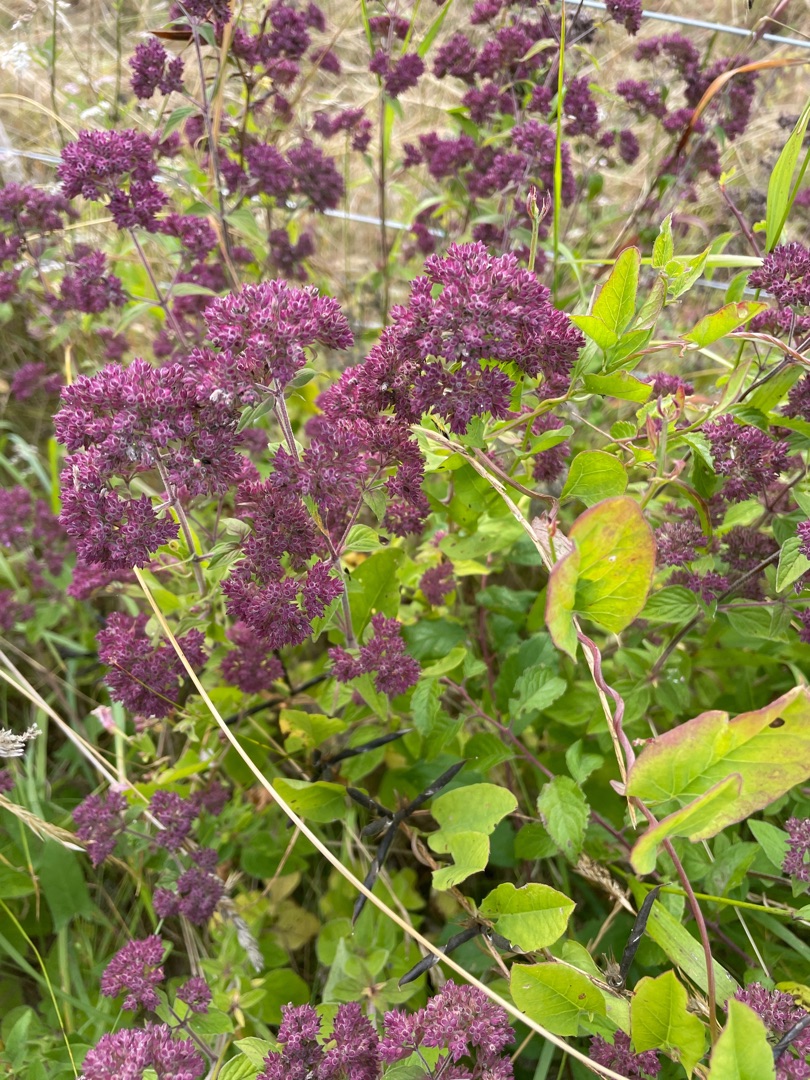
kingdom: Plantae
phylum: Tracheophyta
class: Magnoliopsida
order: Lamiales
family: Lamiaceae
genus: Origanum
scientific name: Origanum vulgare
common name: Merian
